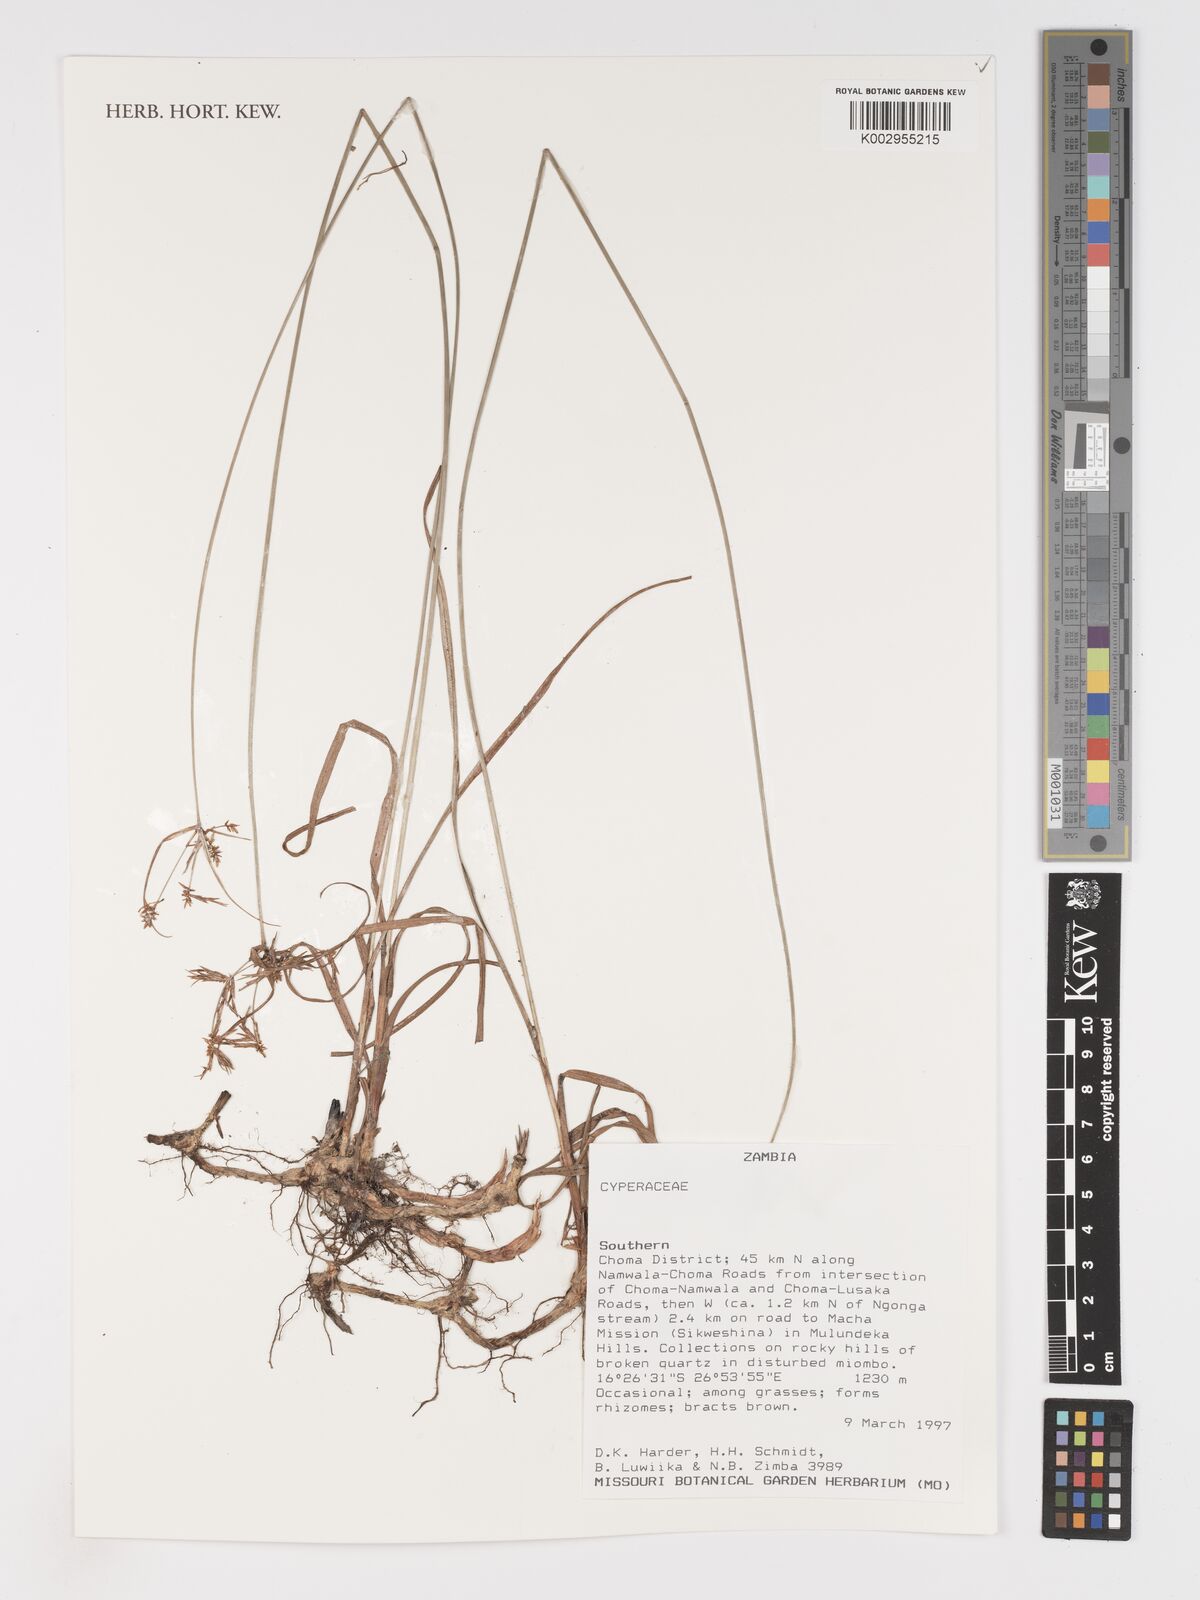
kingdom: Plantae
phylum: Tracheophyta
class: Liliopsida
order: Poales
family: Cyperaceae
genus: Cyperus
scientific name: Cyperus
